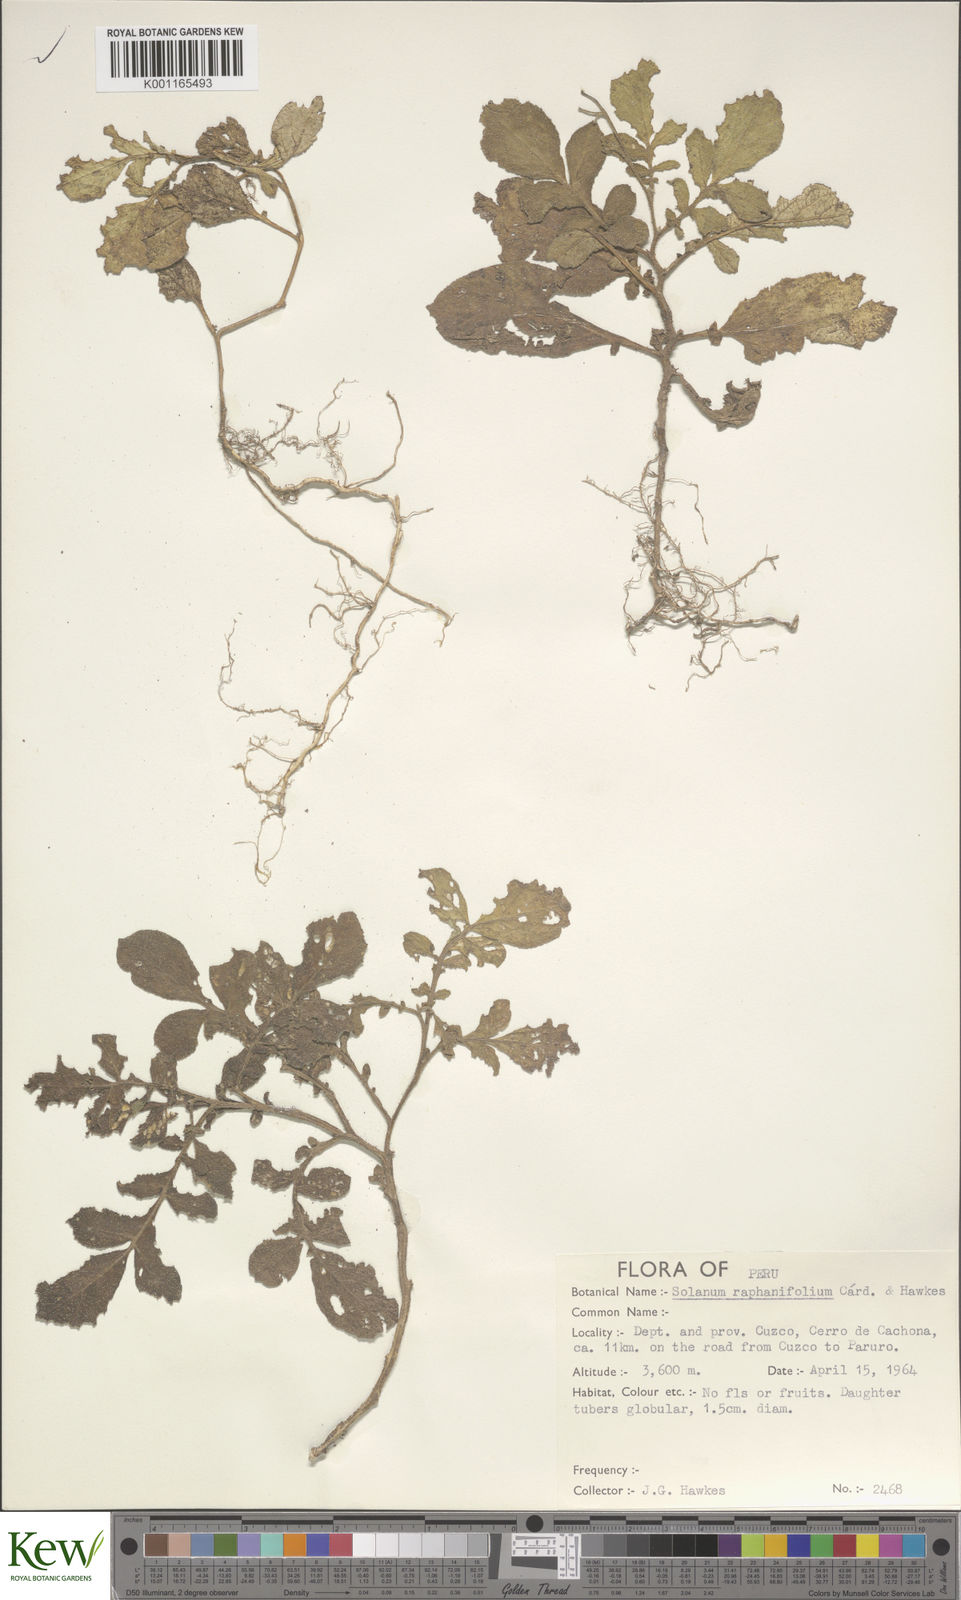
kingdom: Plantae
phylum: Tracheophyta
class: Magnoliopsida
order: Solanales
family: Solanaceae
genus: Solanum
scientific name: Solanum raphanifolium
